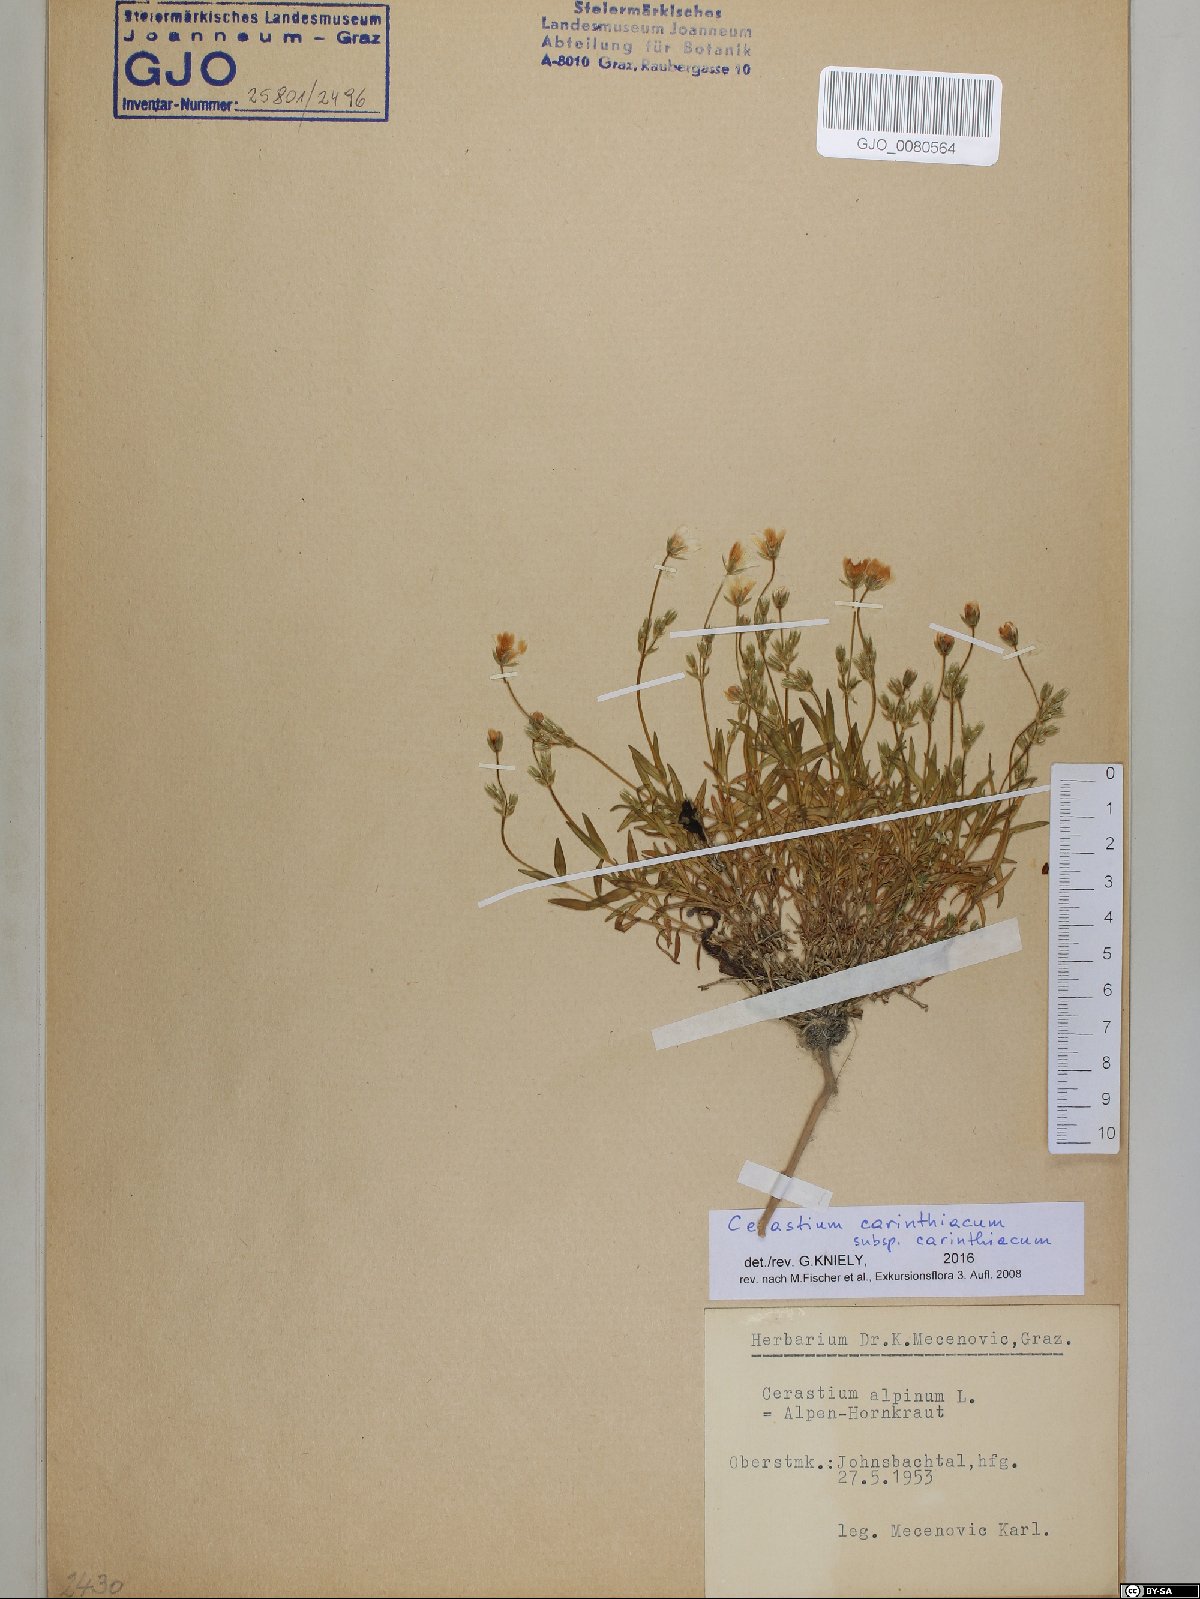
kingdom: Plantae
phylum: Tracheophyta
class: Magnoliopsida
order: Caryophyllales
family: Caryophyllaceae
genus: Cerastium
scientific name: Cerastium carinthiacum
